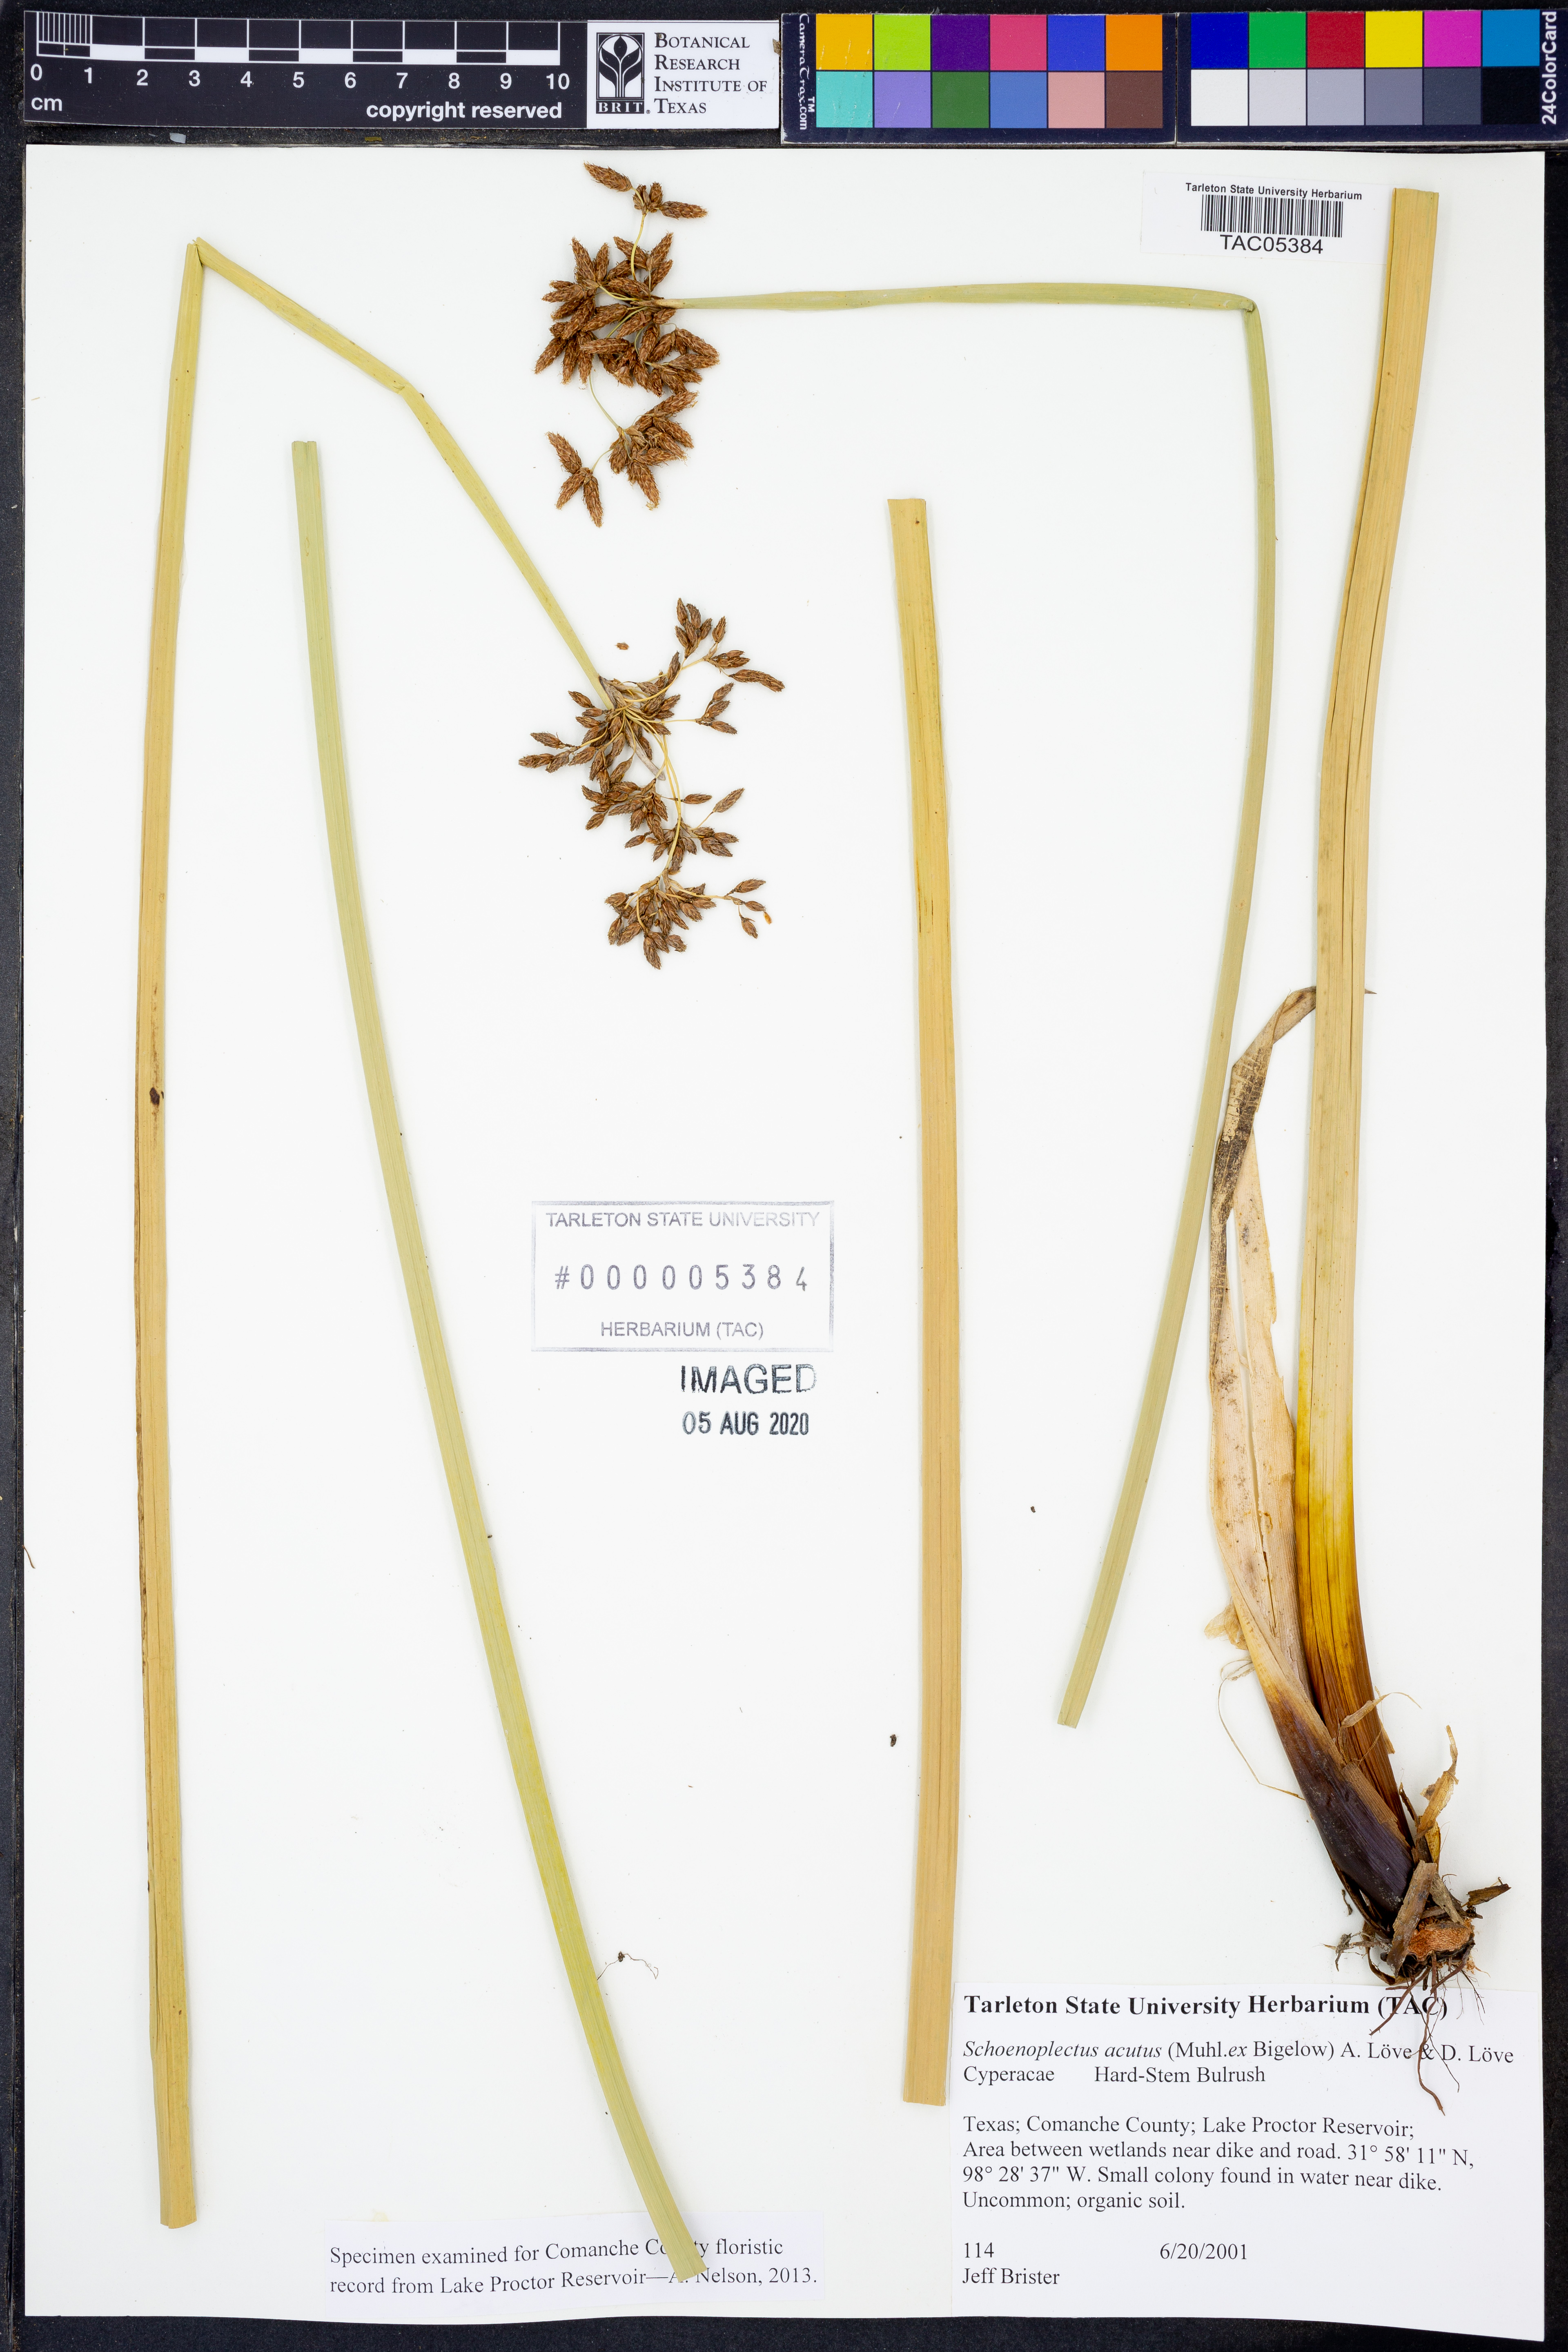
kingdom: Plantae
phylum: Tracheophyta
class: Liliopsida
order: Poales
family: Cyperaceae
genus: Schoenoplectus
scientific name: Schoenoplectus acutus
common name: Hardstem bulrush
